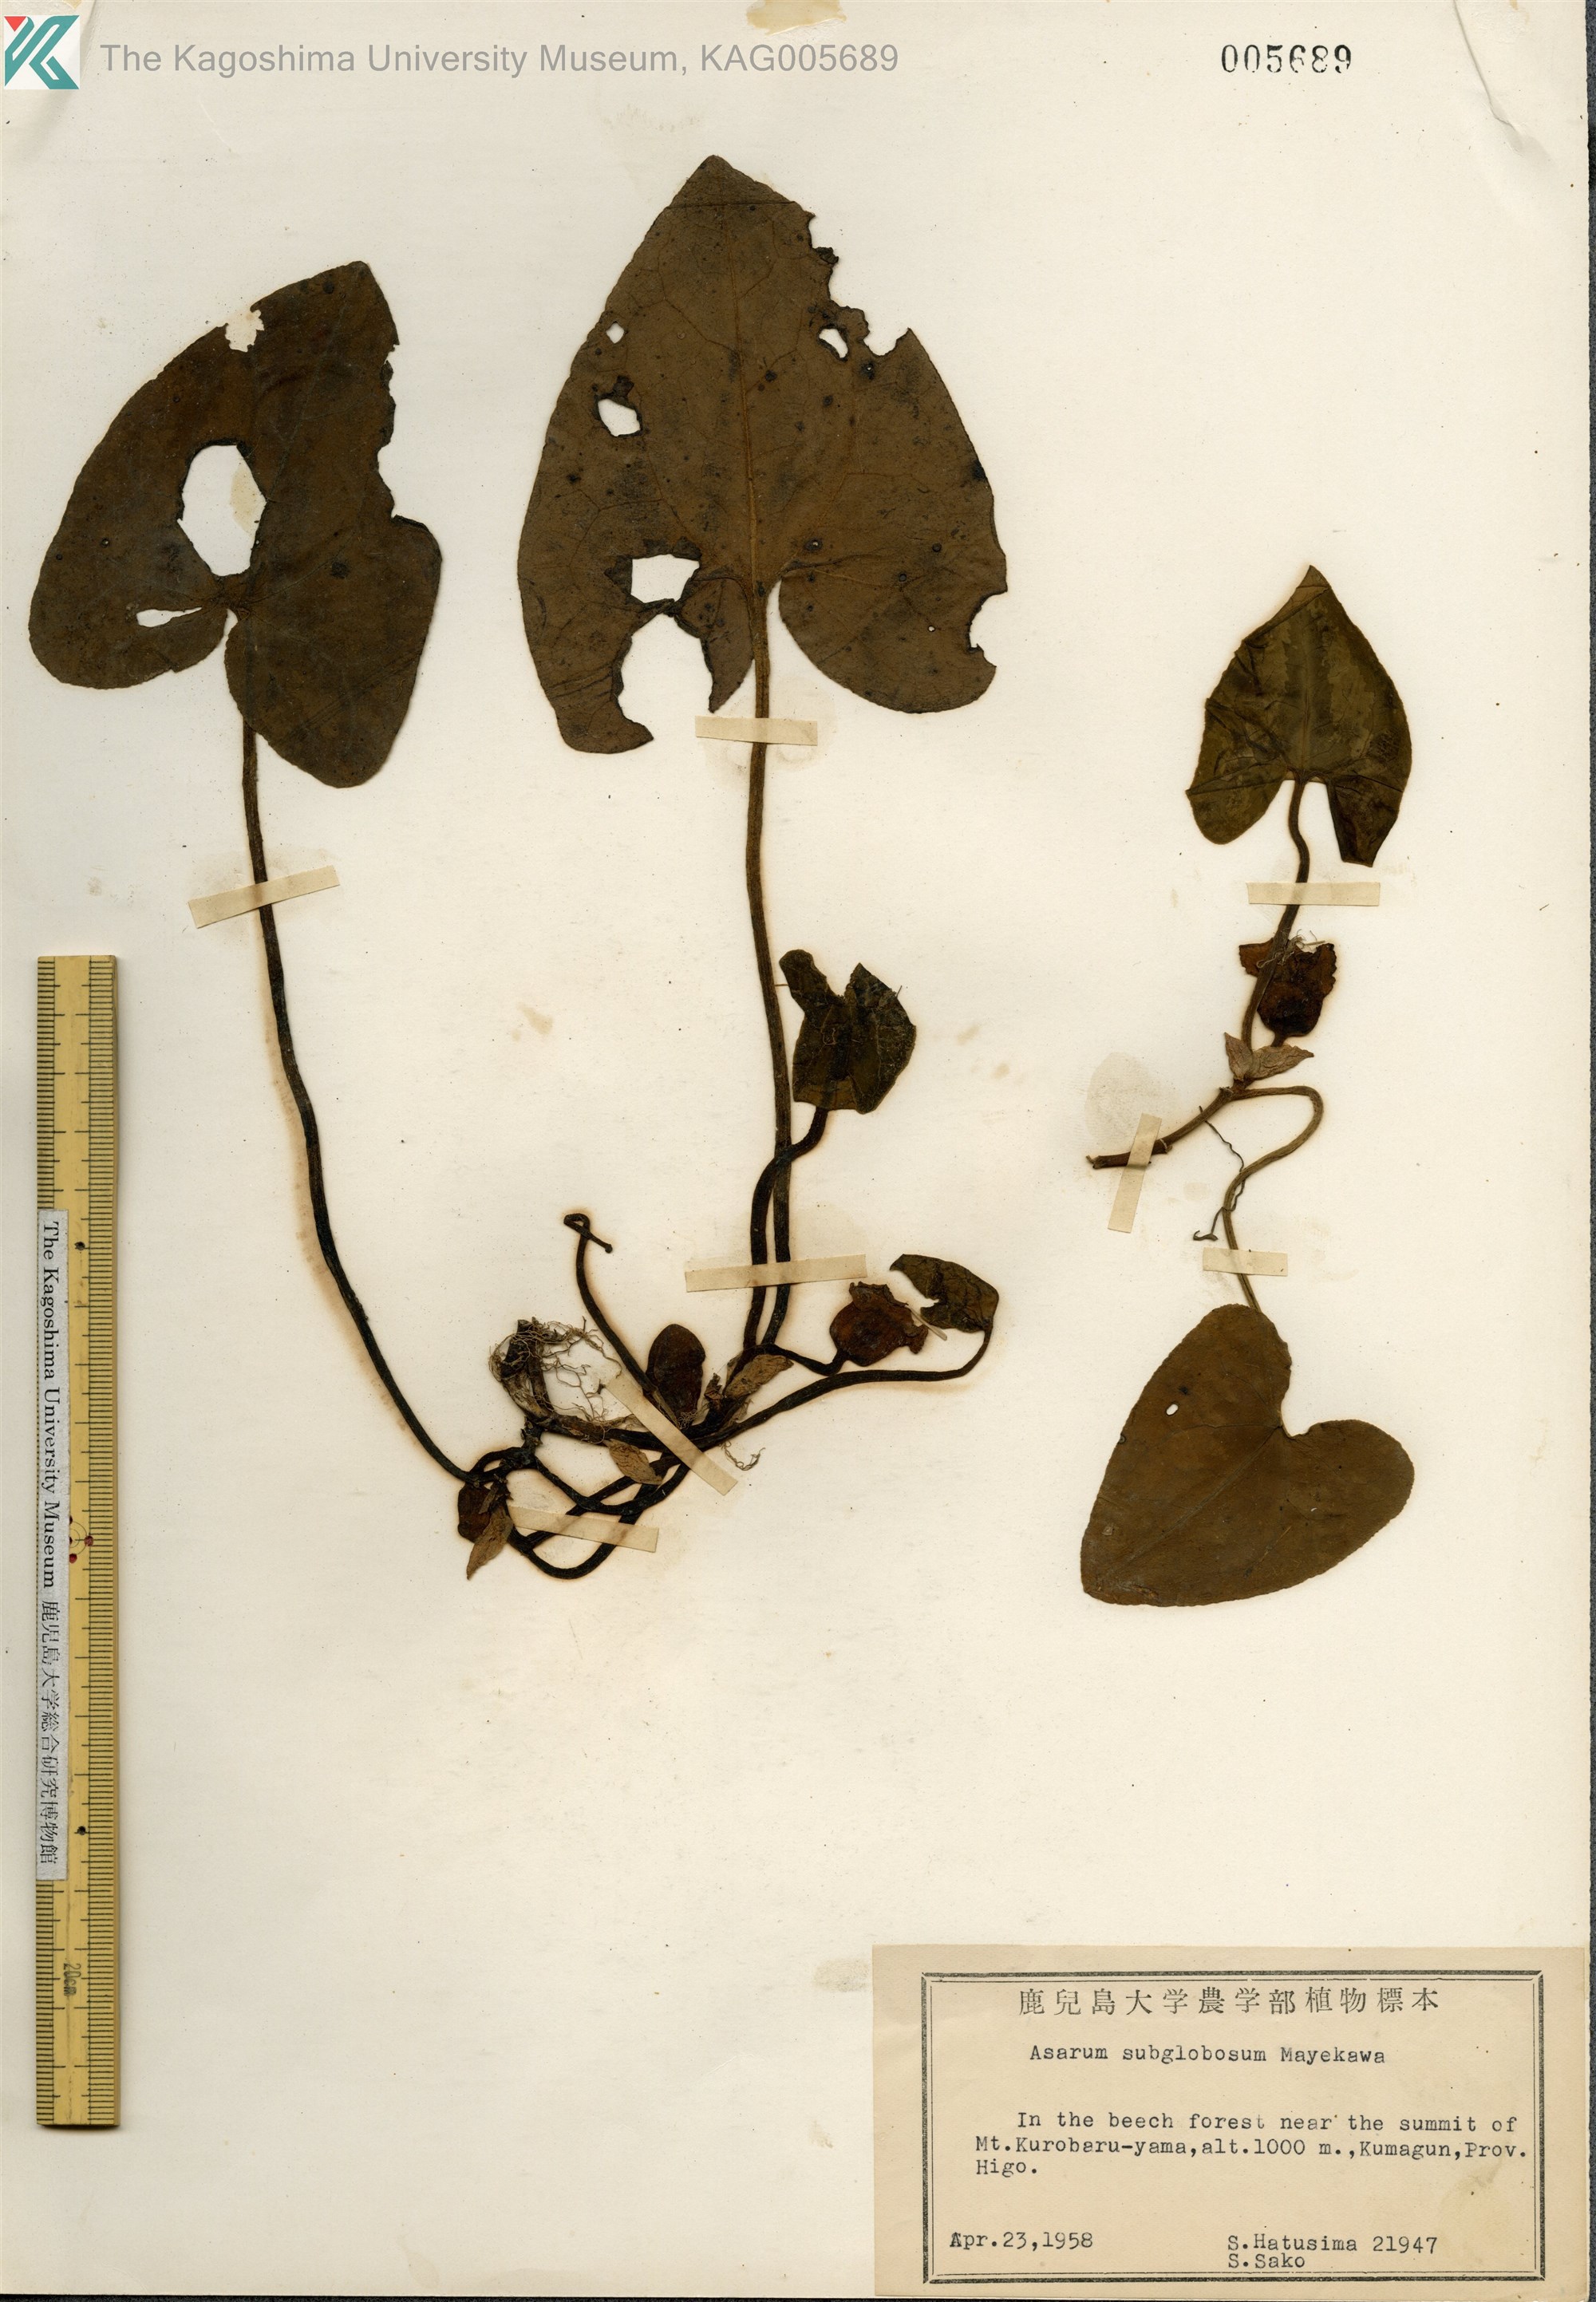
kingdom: Plantae
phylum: Tracheophyta
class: Magnoliopsida
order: Piperales
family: Aristolochiaceae
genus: Asarum
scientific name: Asarum subglobosum
